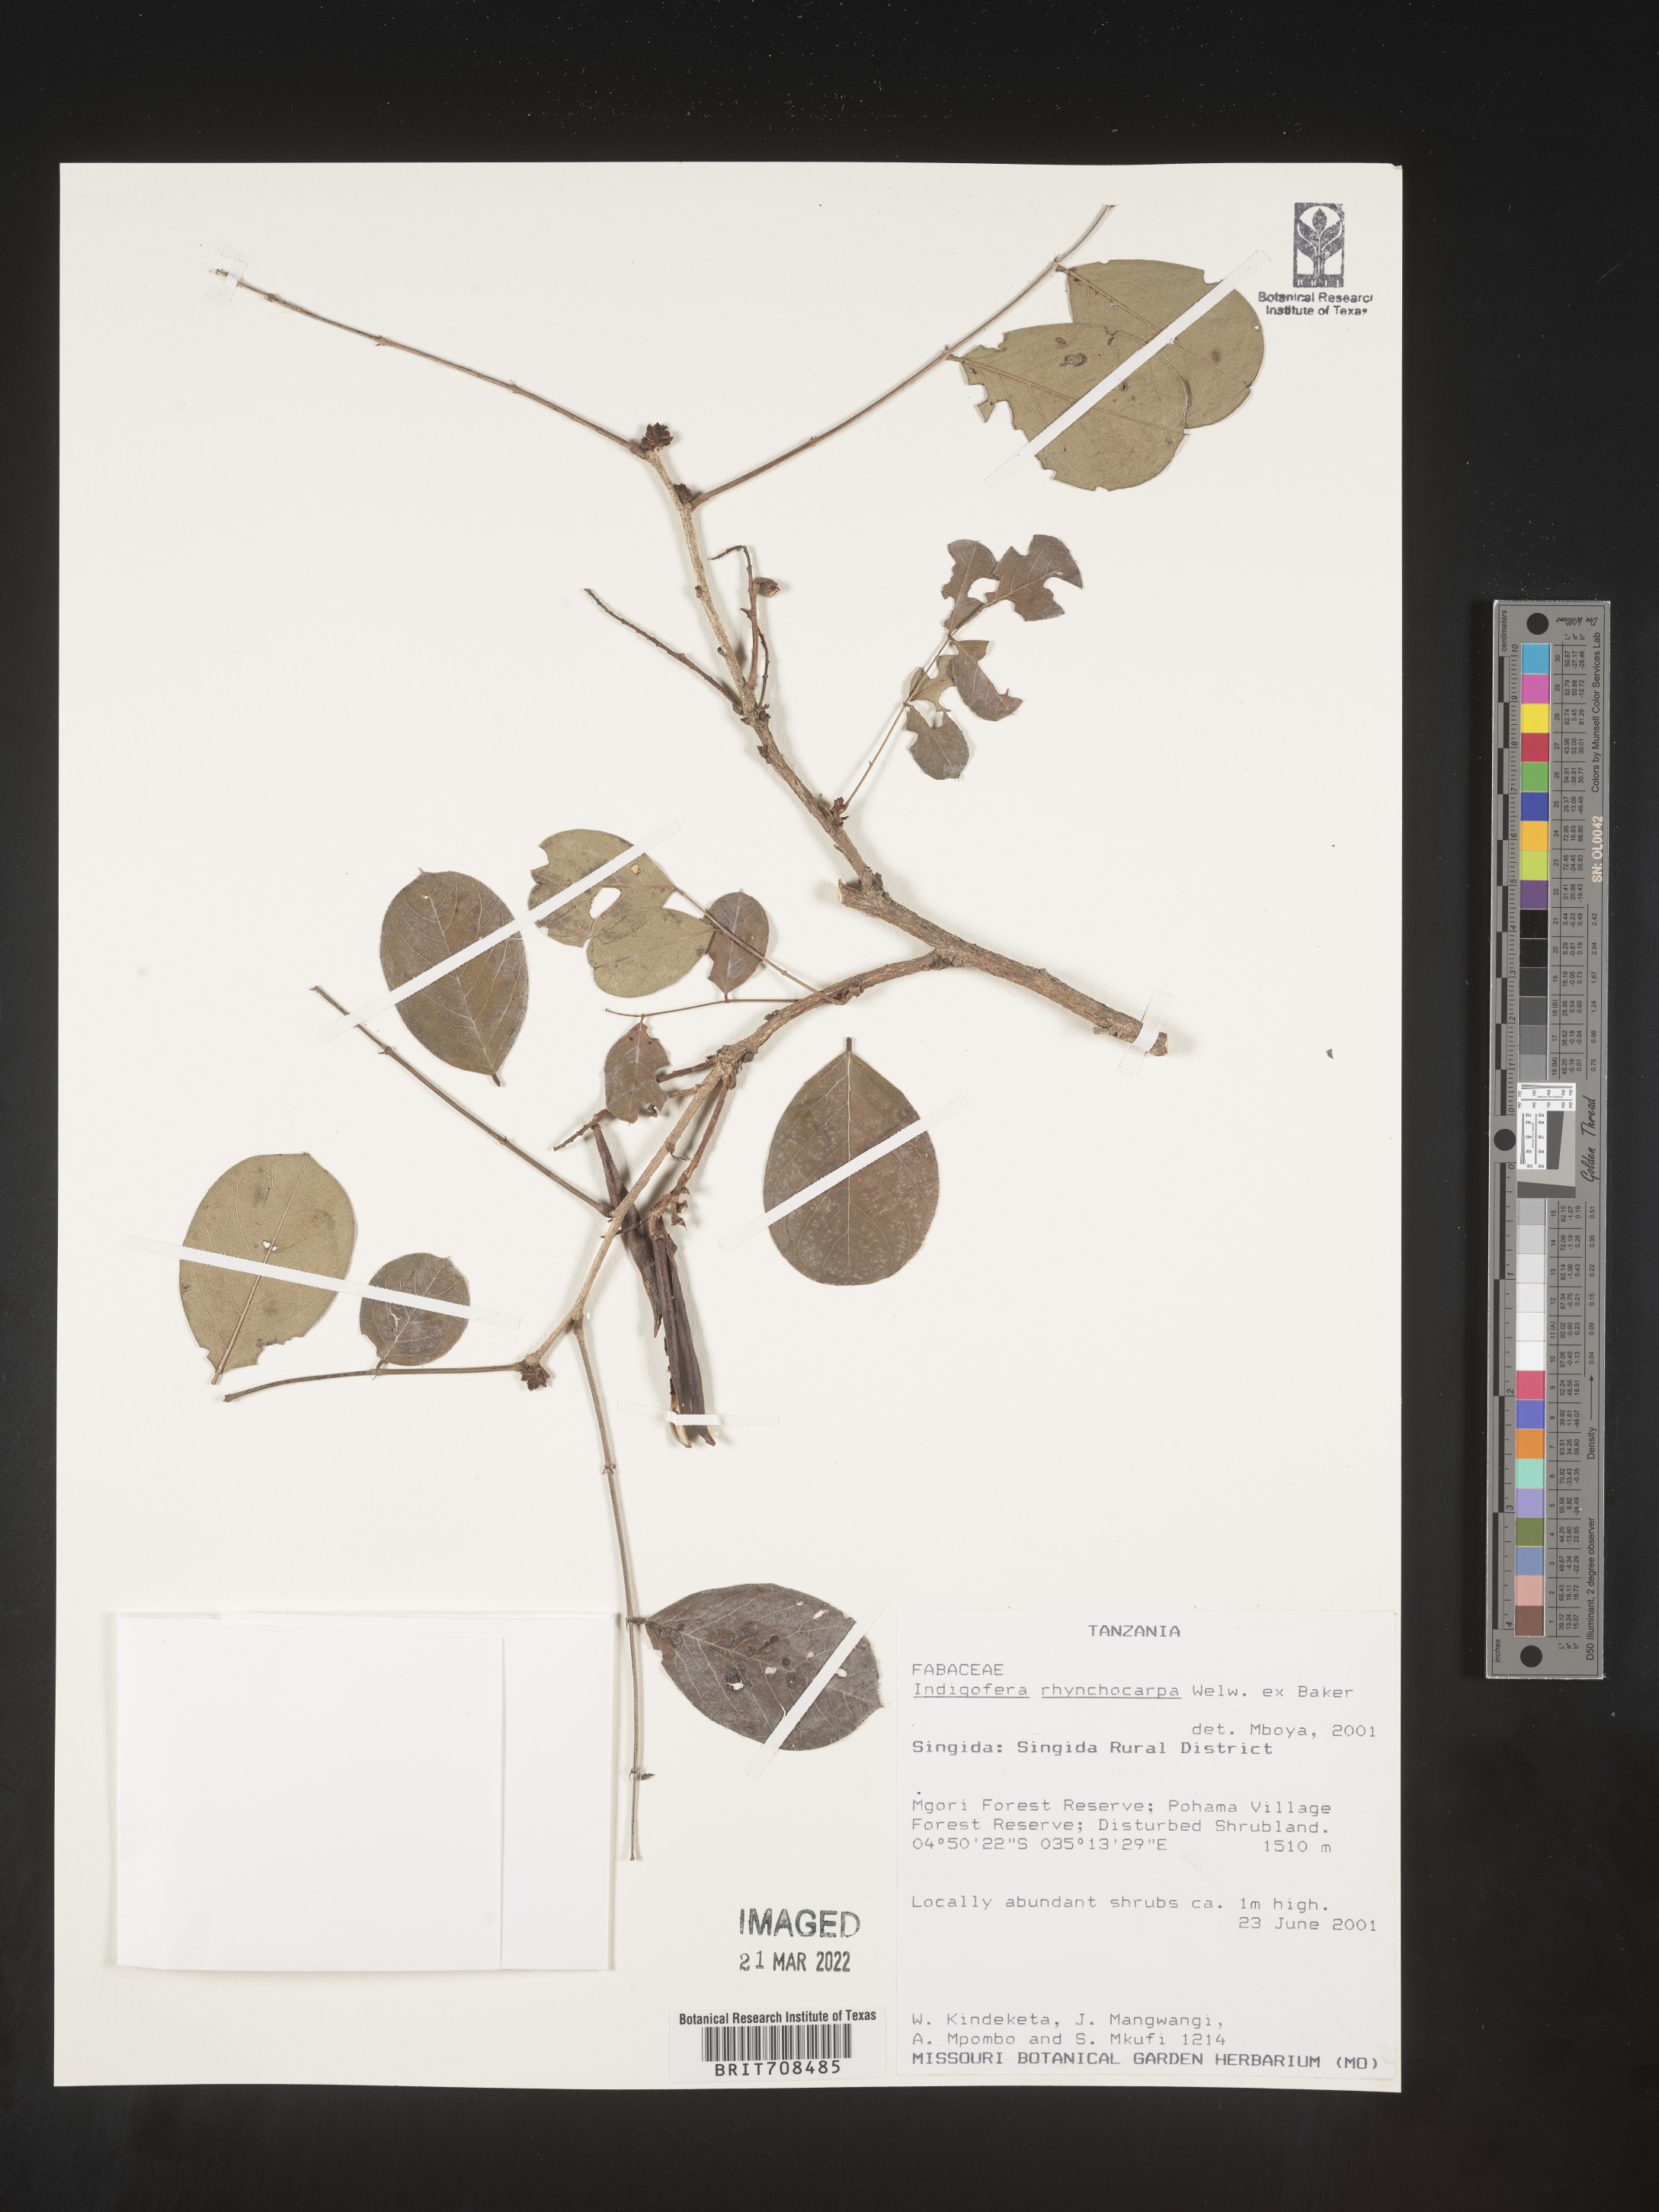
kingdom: Plantae
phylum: Tracheophyta
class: Magnoliopsida
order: Fabales
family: Fabaceae
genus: Indigofera
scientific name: Indigofera
